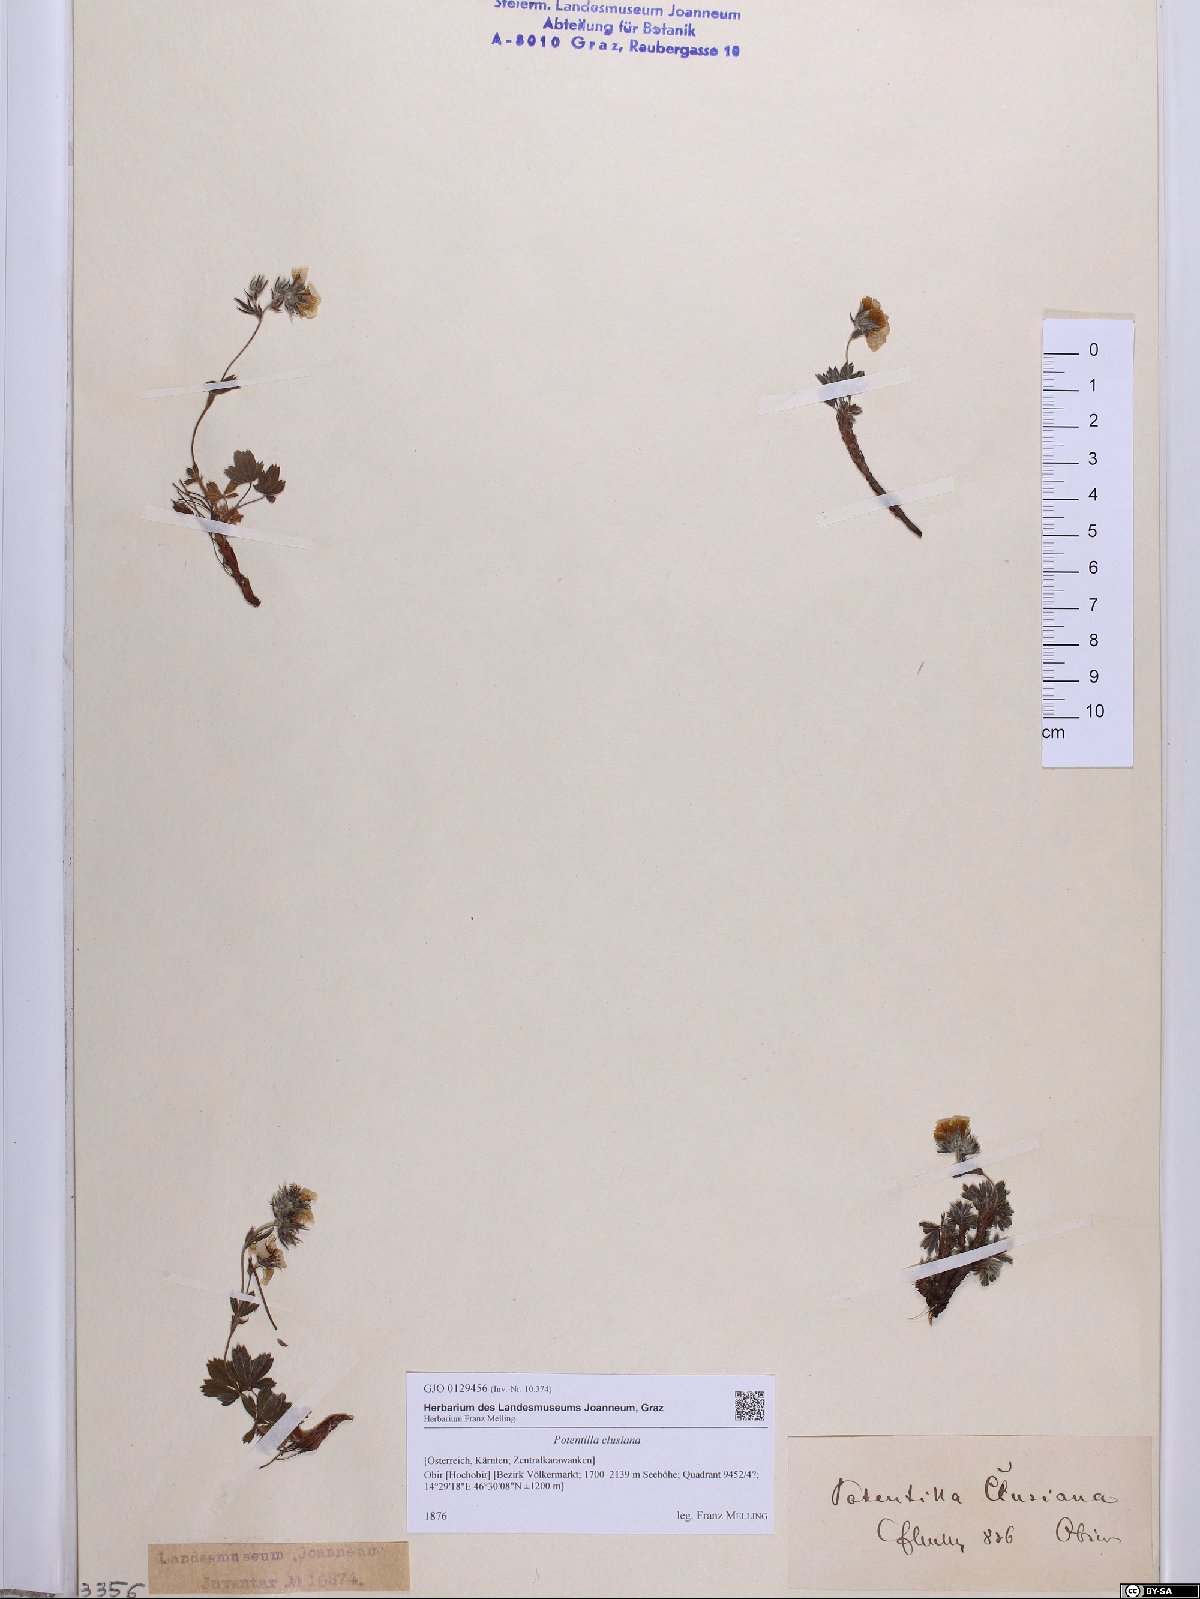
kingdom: Plantae
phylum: Tracheophyta
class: Magnoliopsida
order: Rosales
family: Rosaceae
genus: Potentilla
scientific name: Potentilla clusiana
